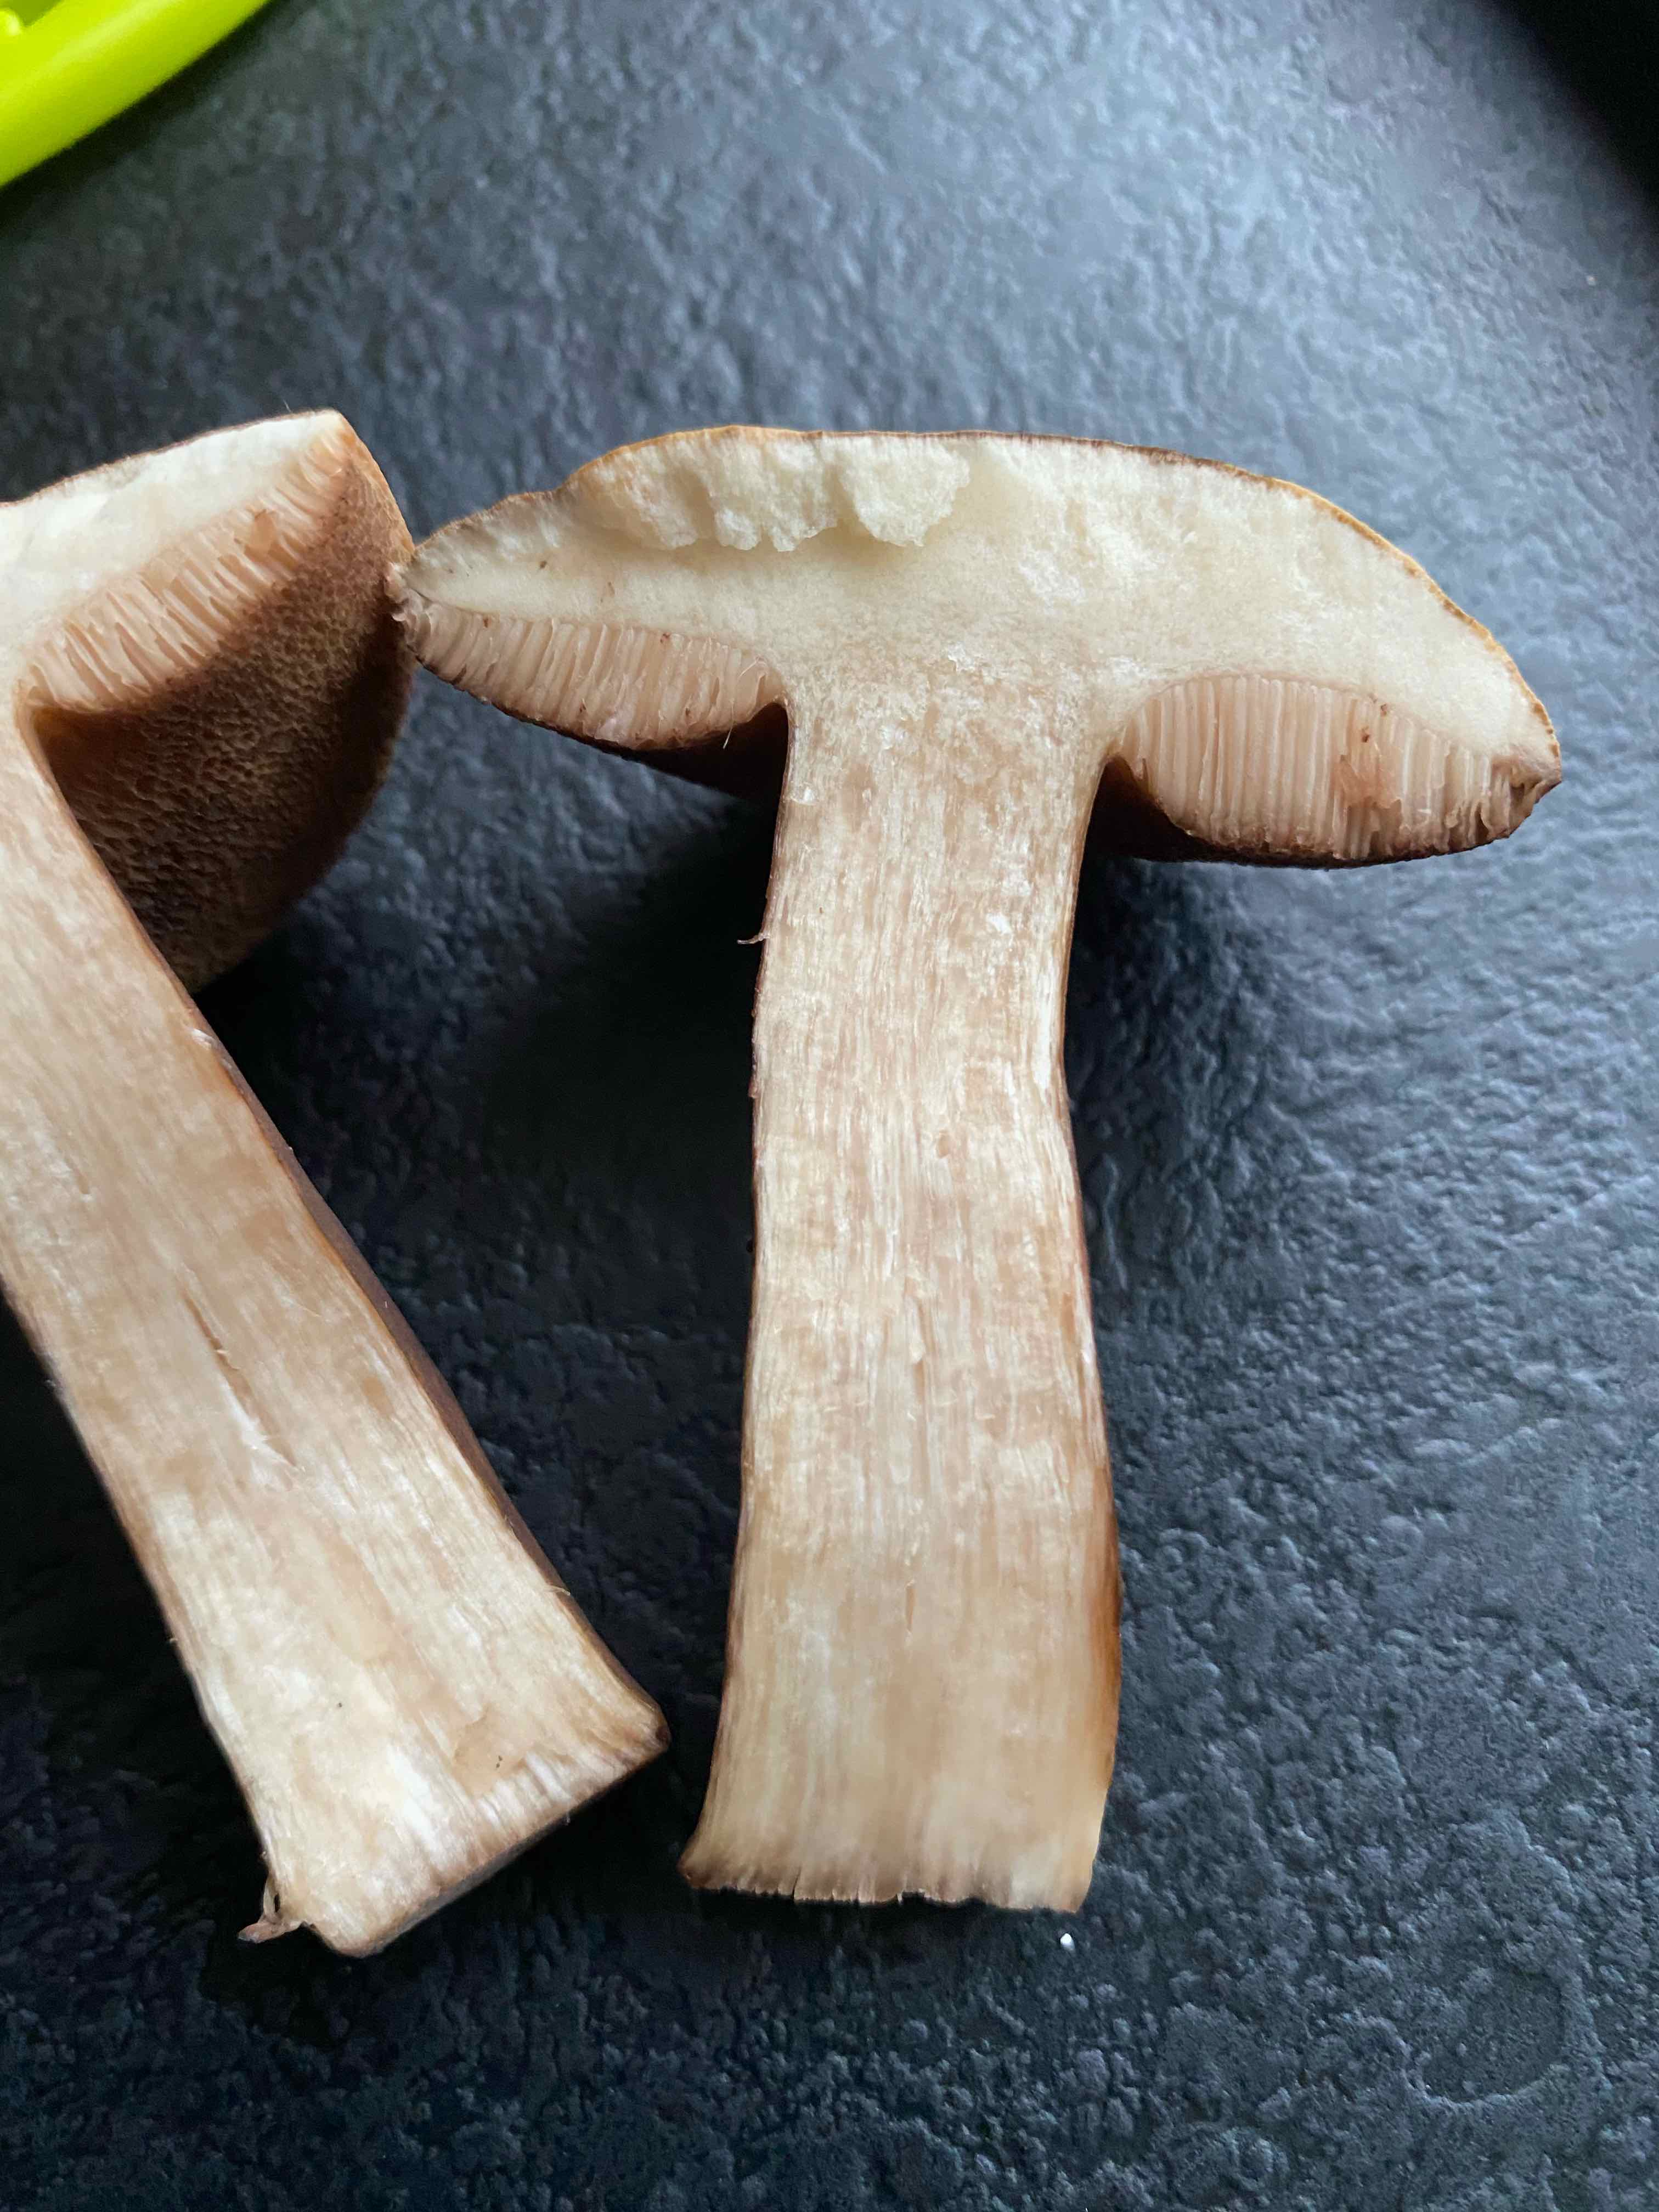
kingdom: Fungi
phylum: Basidiomycota
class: Agaricomycetes
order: Boletales
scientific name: Boletales
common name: rørhatordenen
